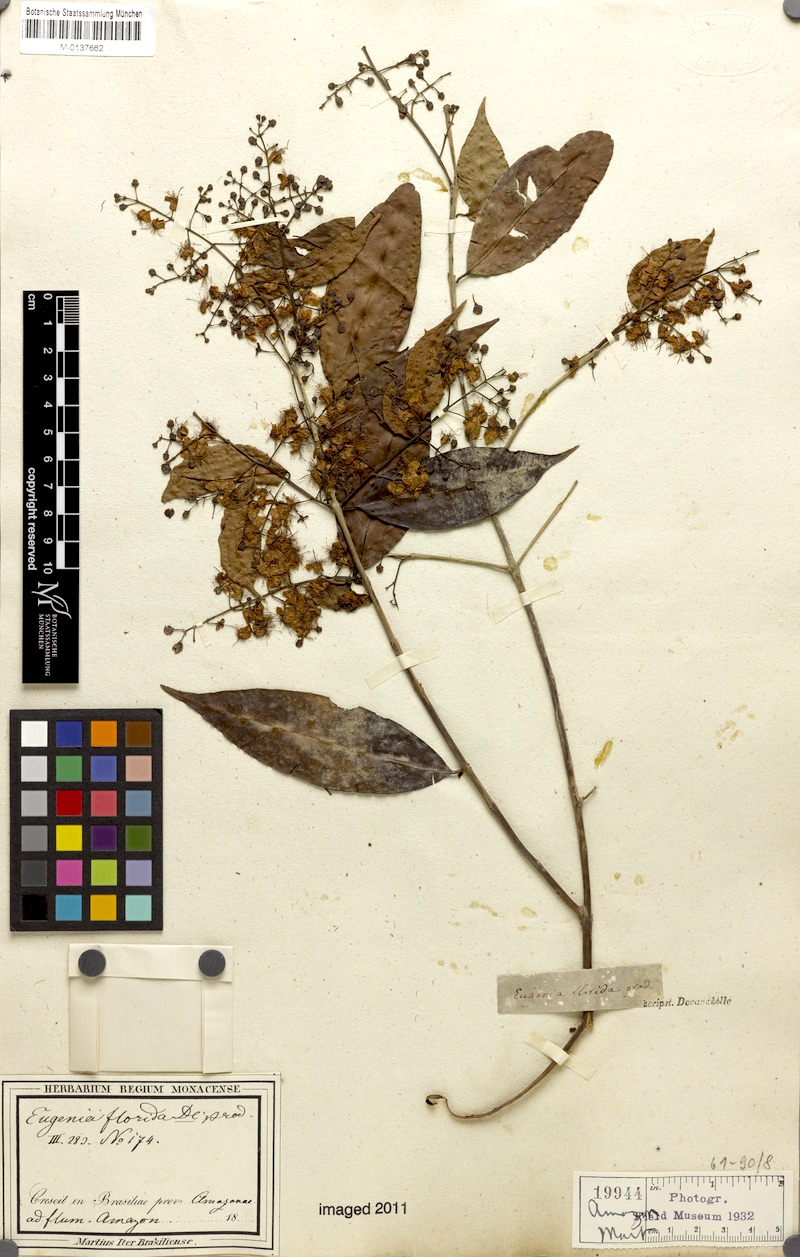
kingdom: Plantae
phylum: Tracheophyta
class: Magnoliopsida
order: Myrtales
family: Myrtaceae
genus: Eugenia
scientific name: Eugenia florida
